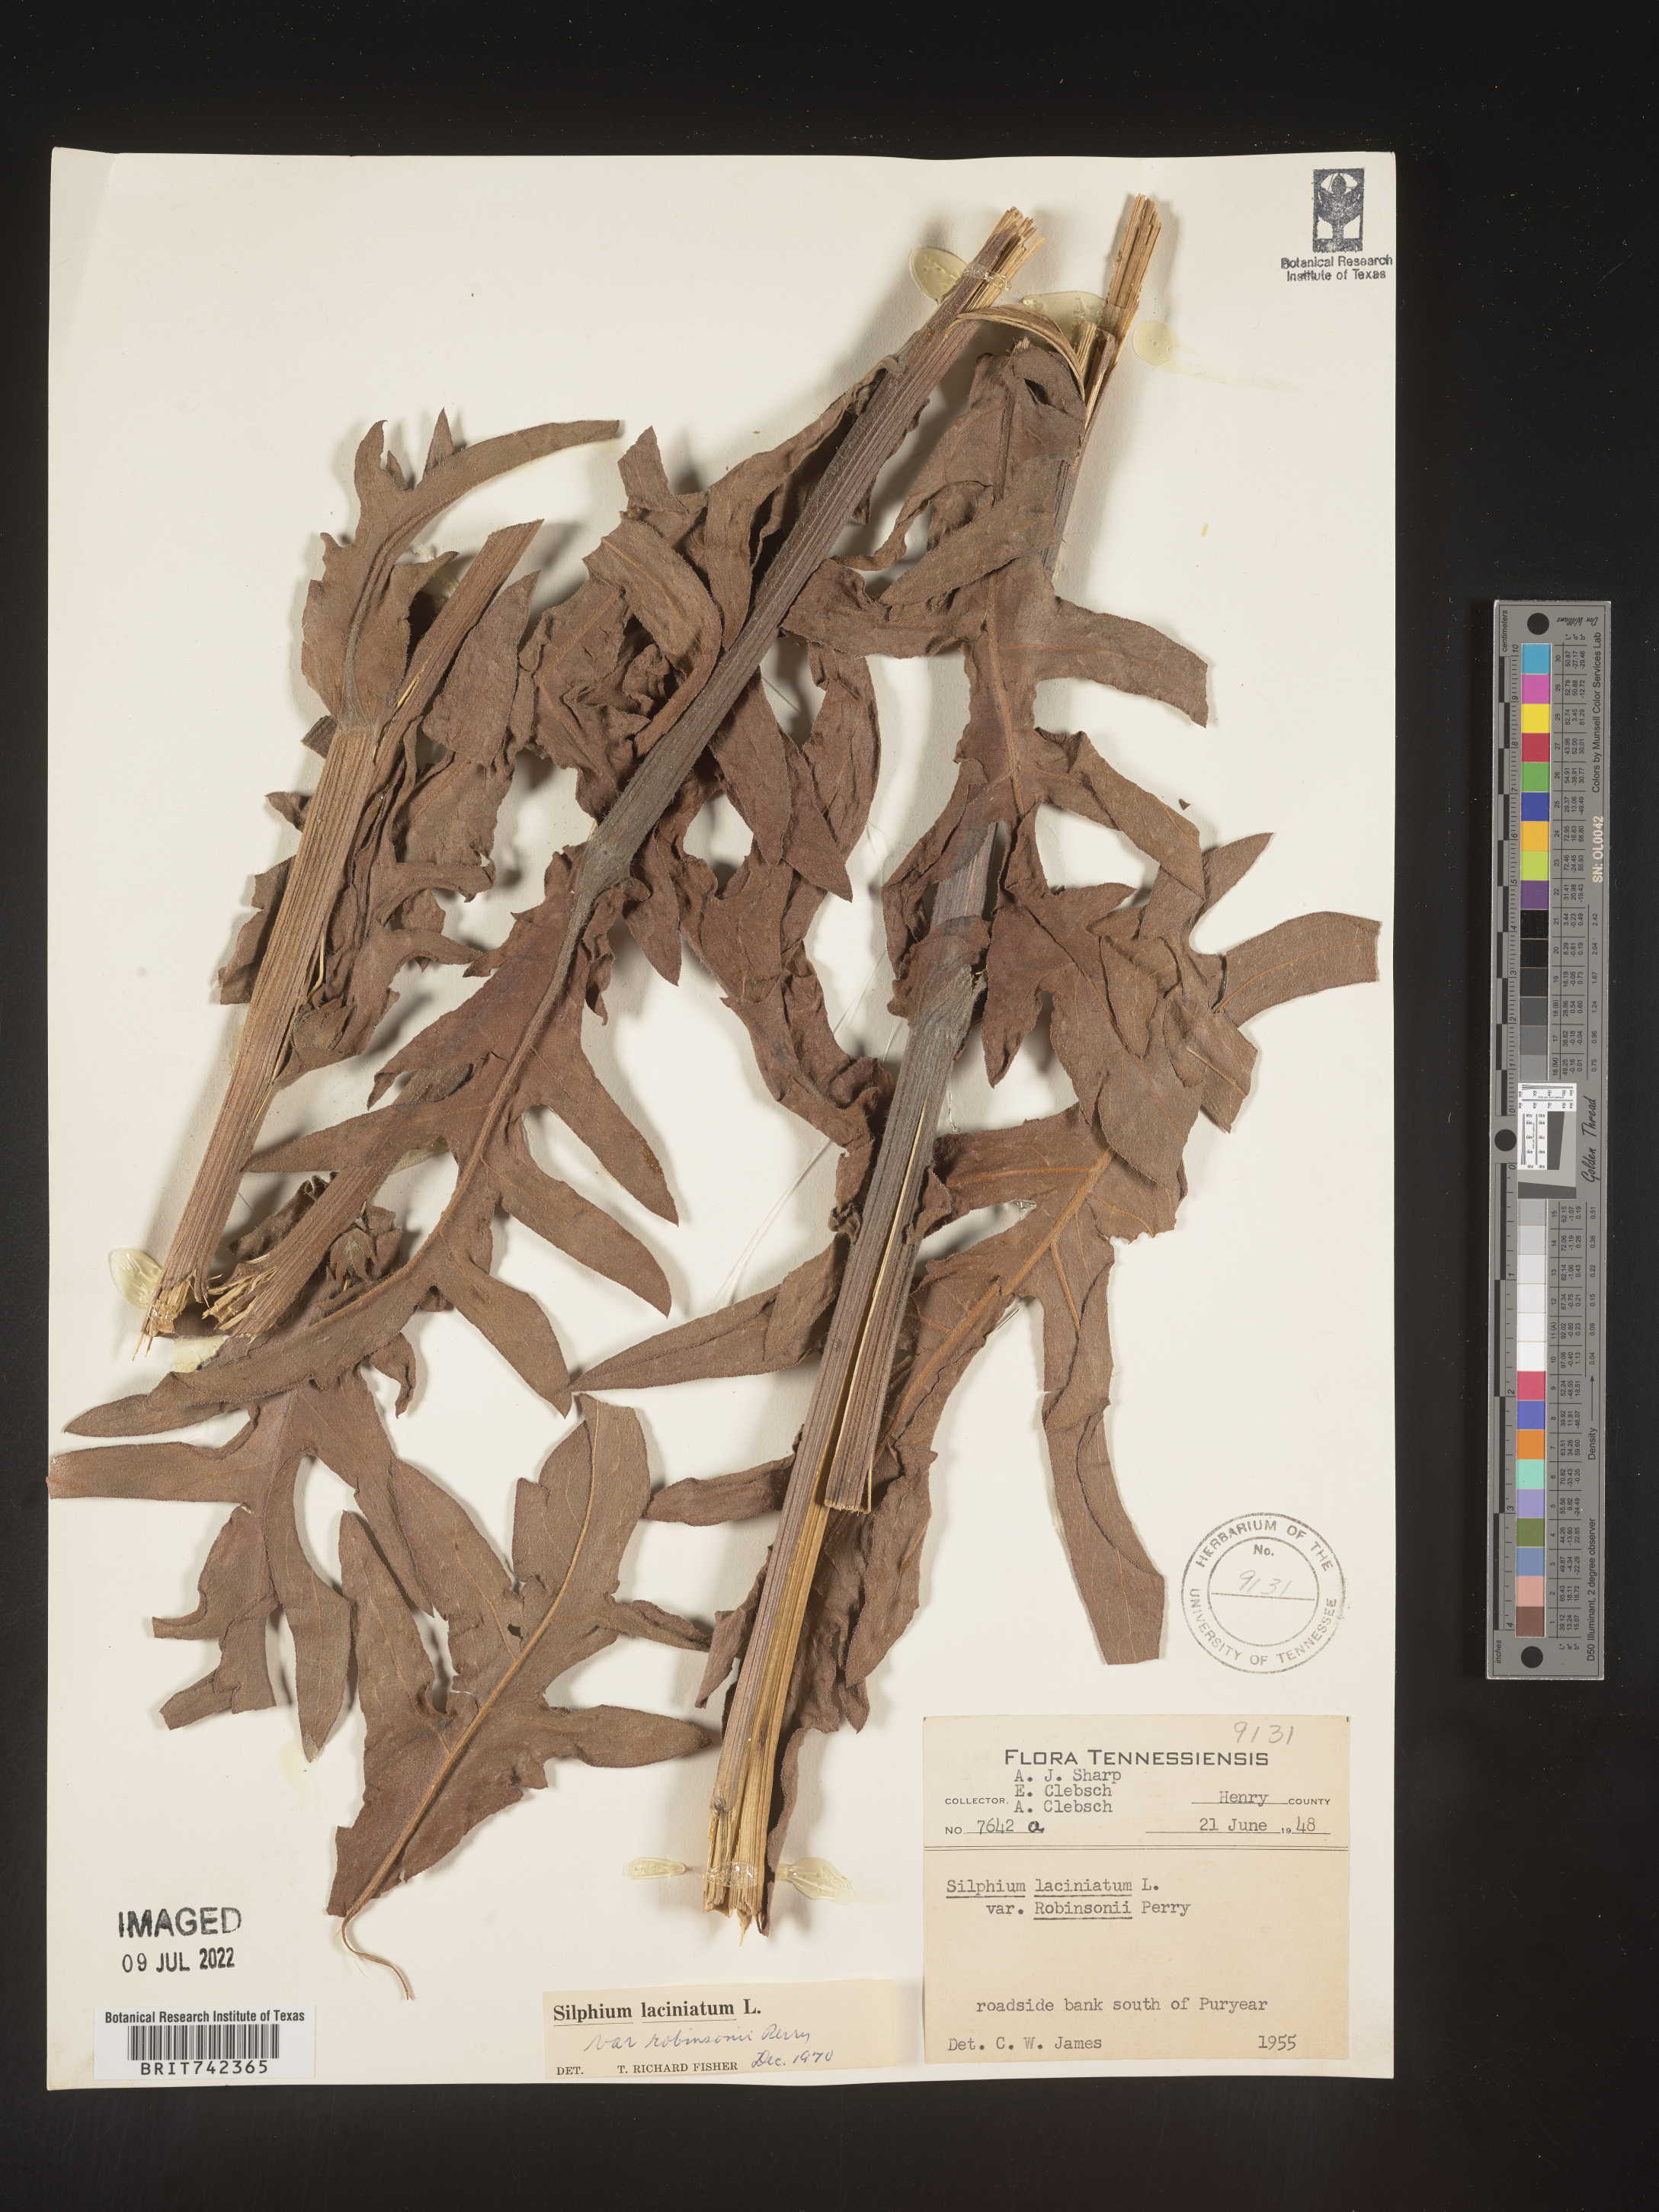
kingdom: Plantae
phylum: Tracheophyta
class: Magnoliopsida
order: Asterales
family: Asteraceae
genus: Silphium
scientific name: Silphium laciniatum
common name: Polarplant
